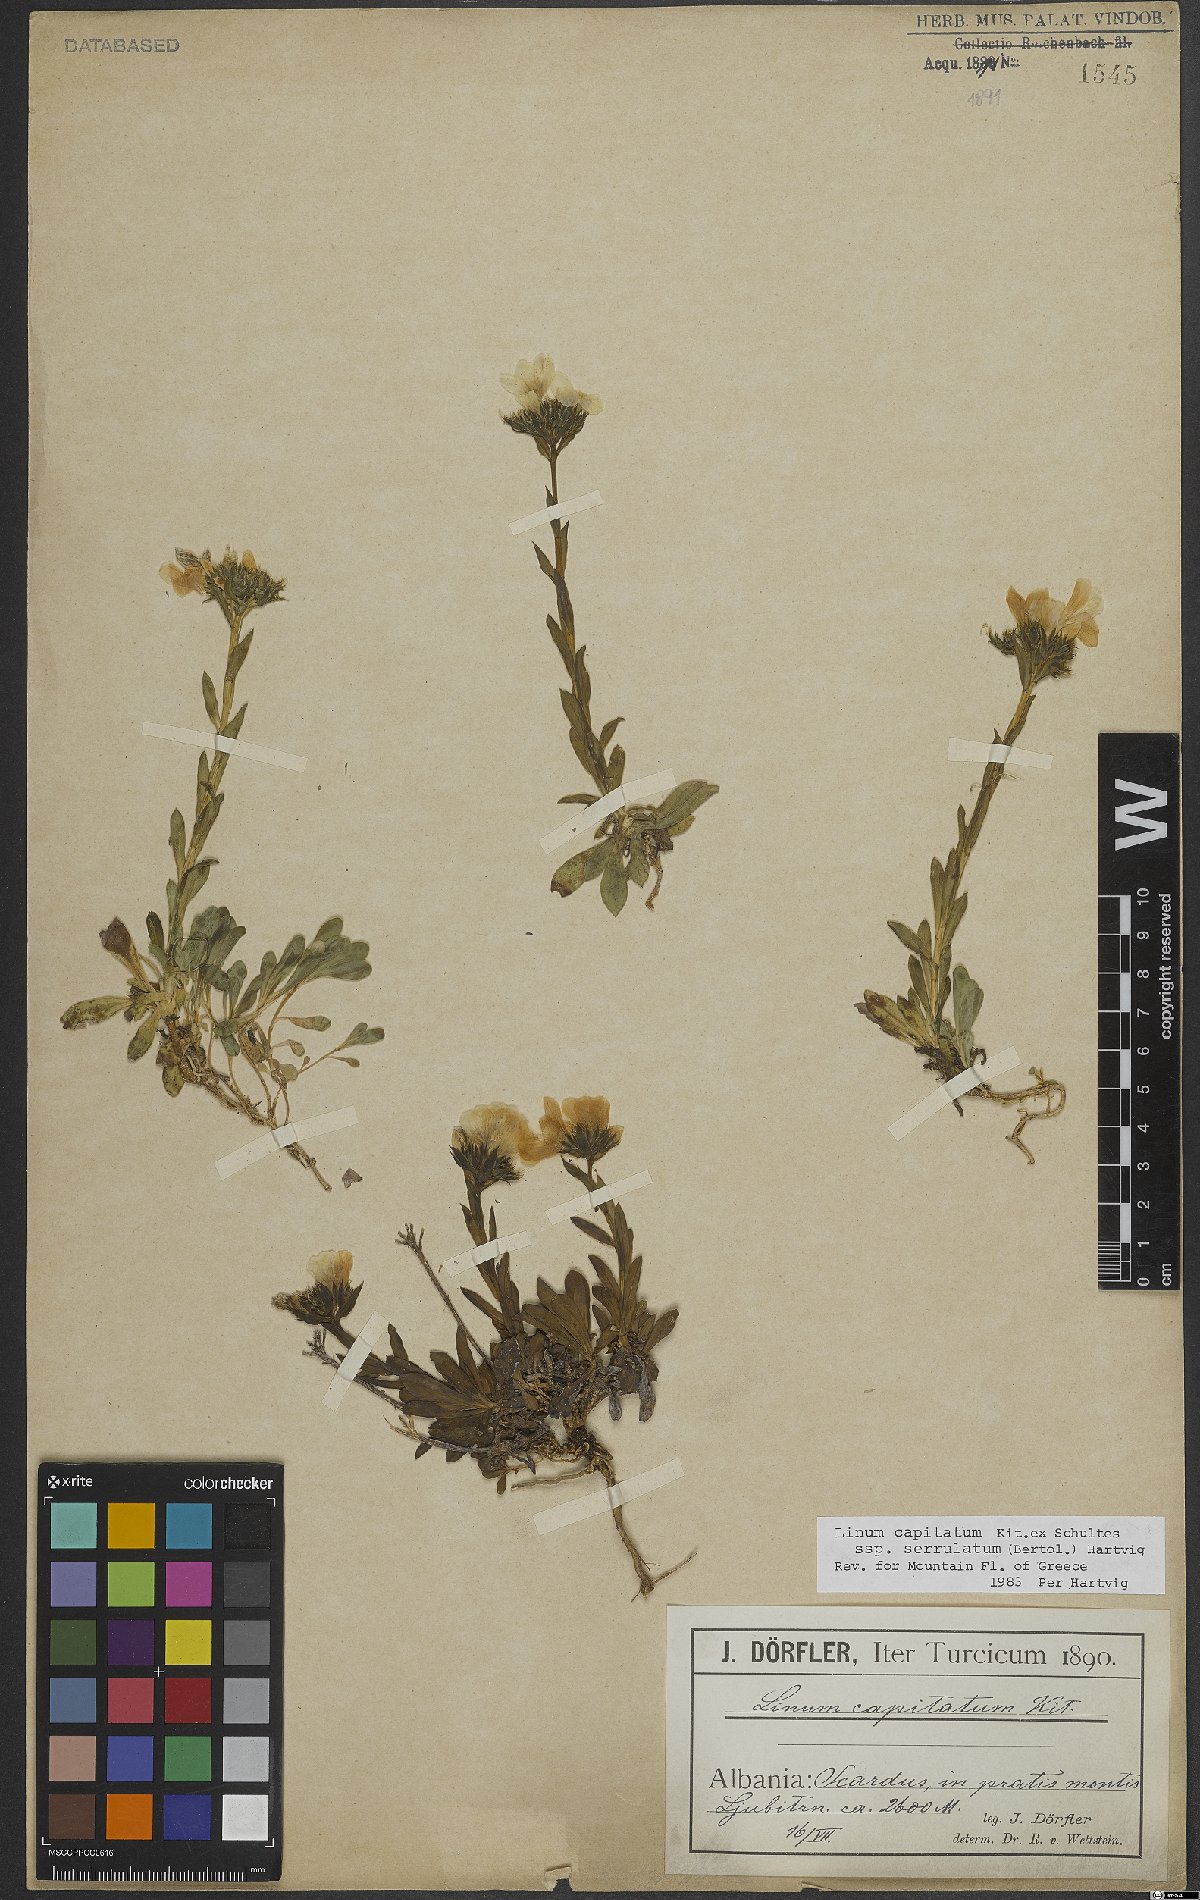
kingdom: Plantae
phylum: Tracheophyta
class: Magnoliopsida
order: Malpighiales
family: Linaceae
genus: Linum
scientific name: Linum capitatum
